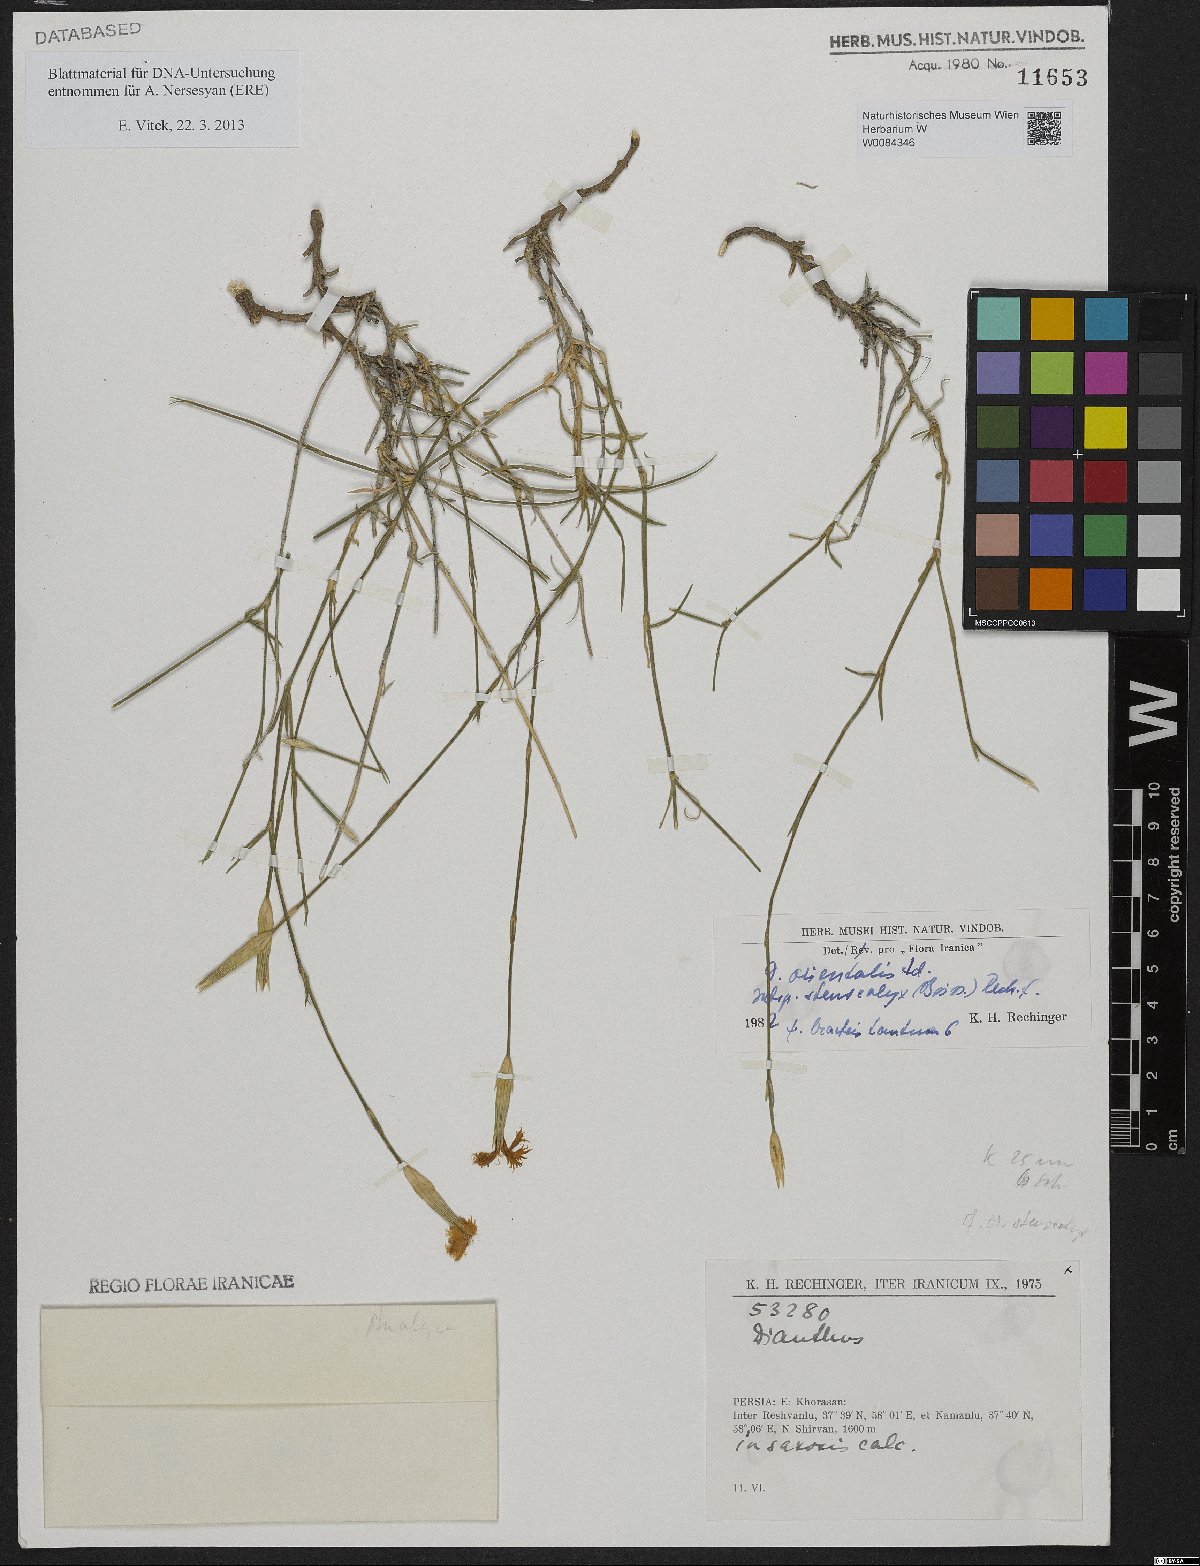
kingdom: Plantae
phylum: Tracheophyta
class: Magnoliopsida
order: Caryophyllales
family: Caryophyllaceae
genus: Dianthus
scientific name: Dianthus orientalis
